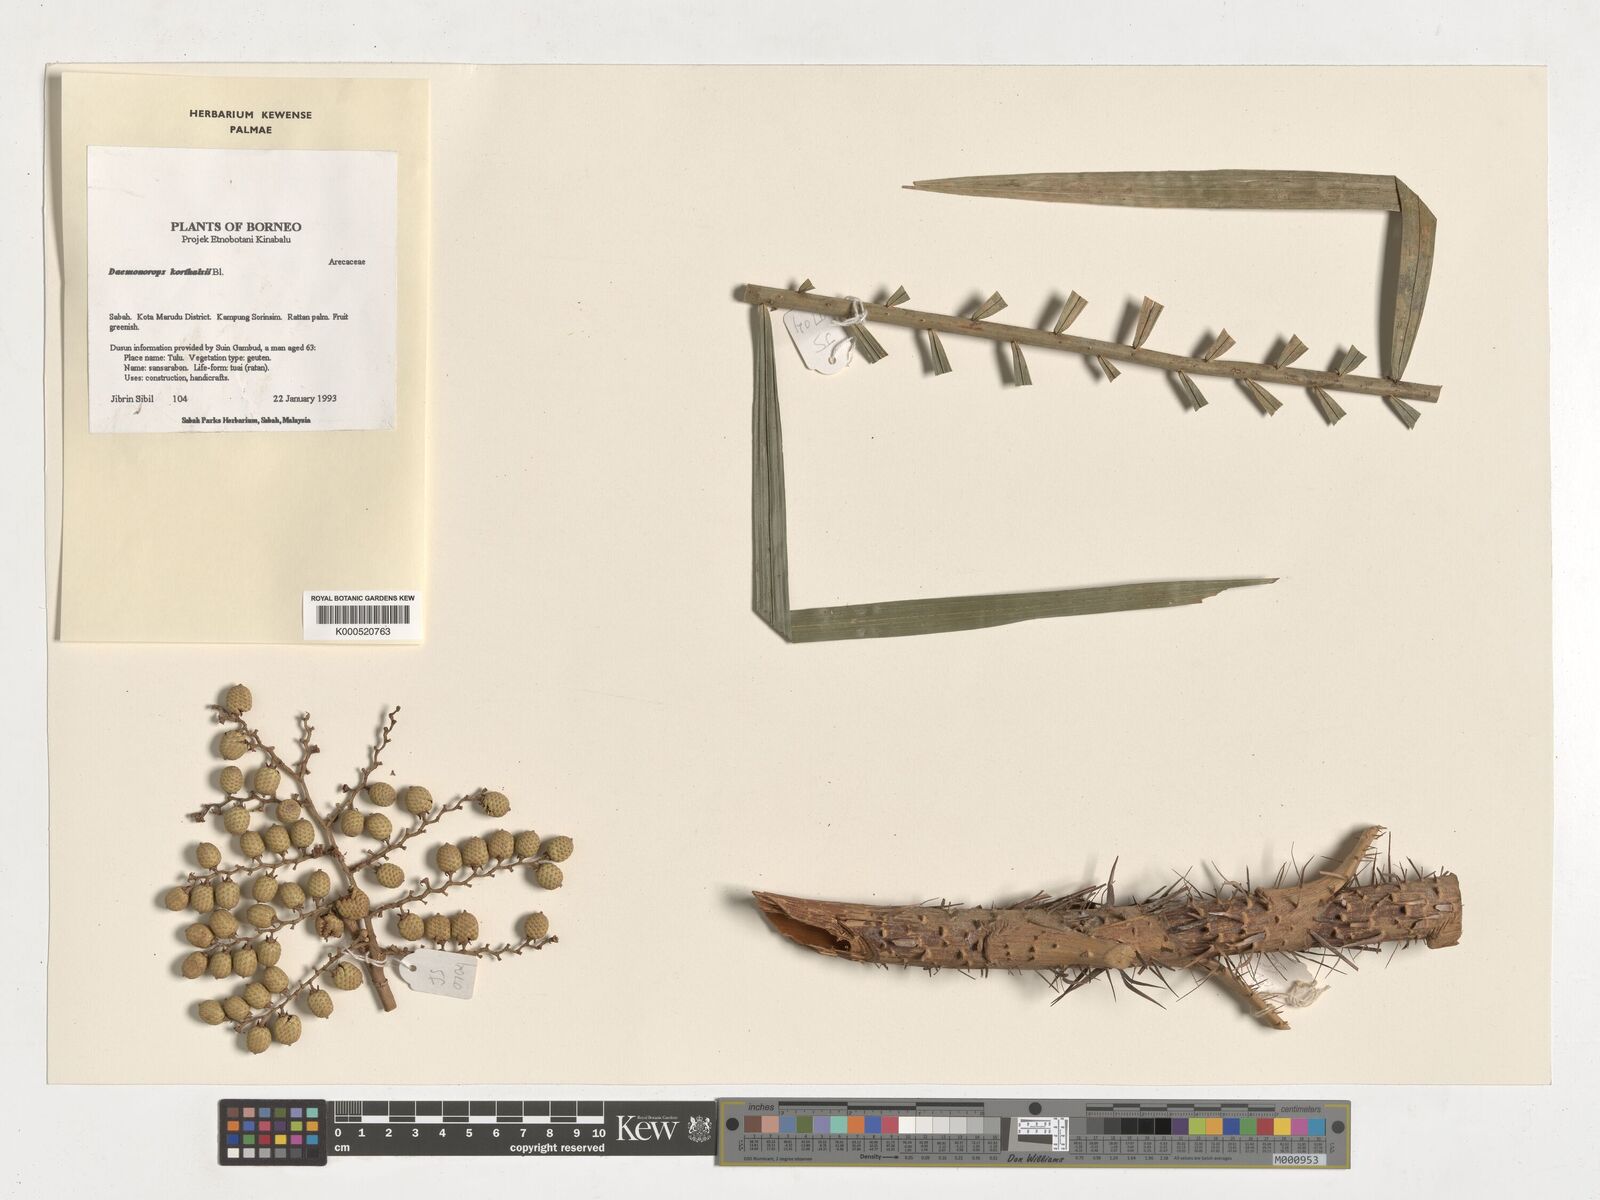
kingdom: Plantae
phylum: Tracheophyta
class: Liliopsida
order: Arecales
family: Arecaceae
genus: Calamus
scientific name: Calamus hirsutus
